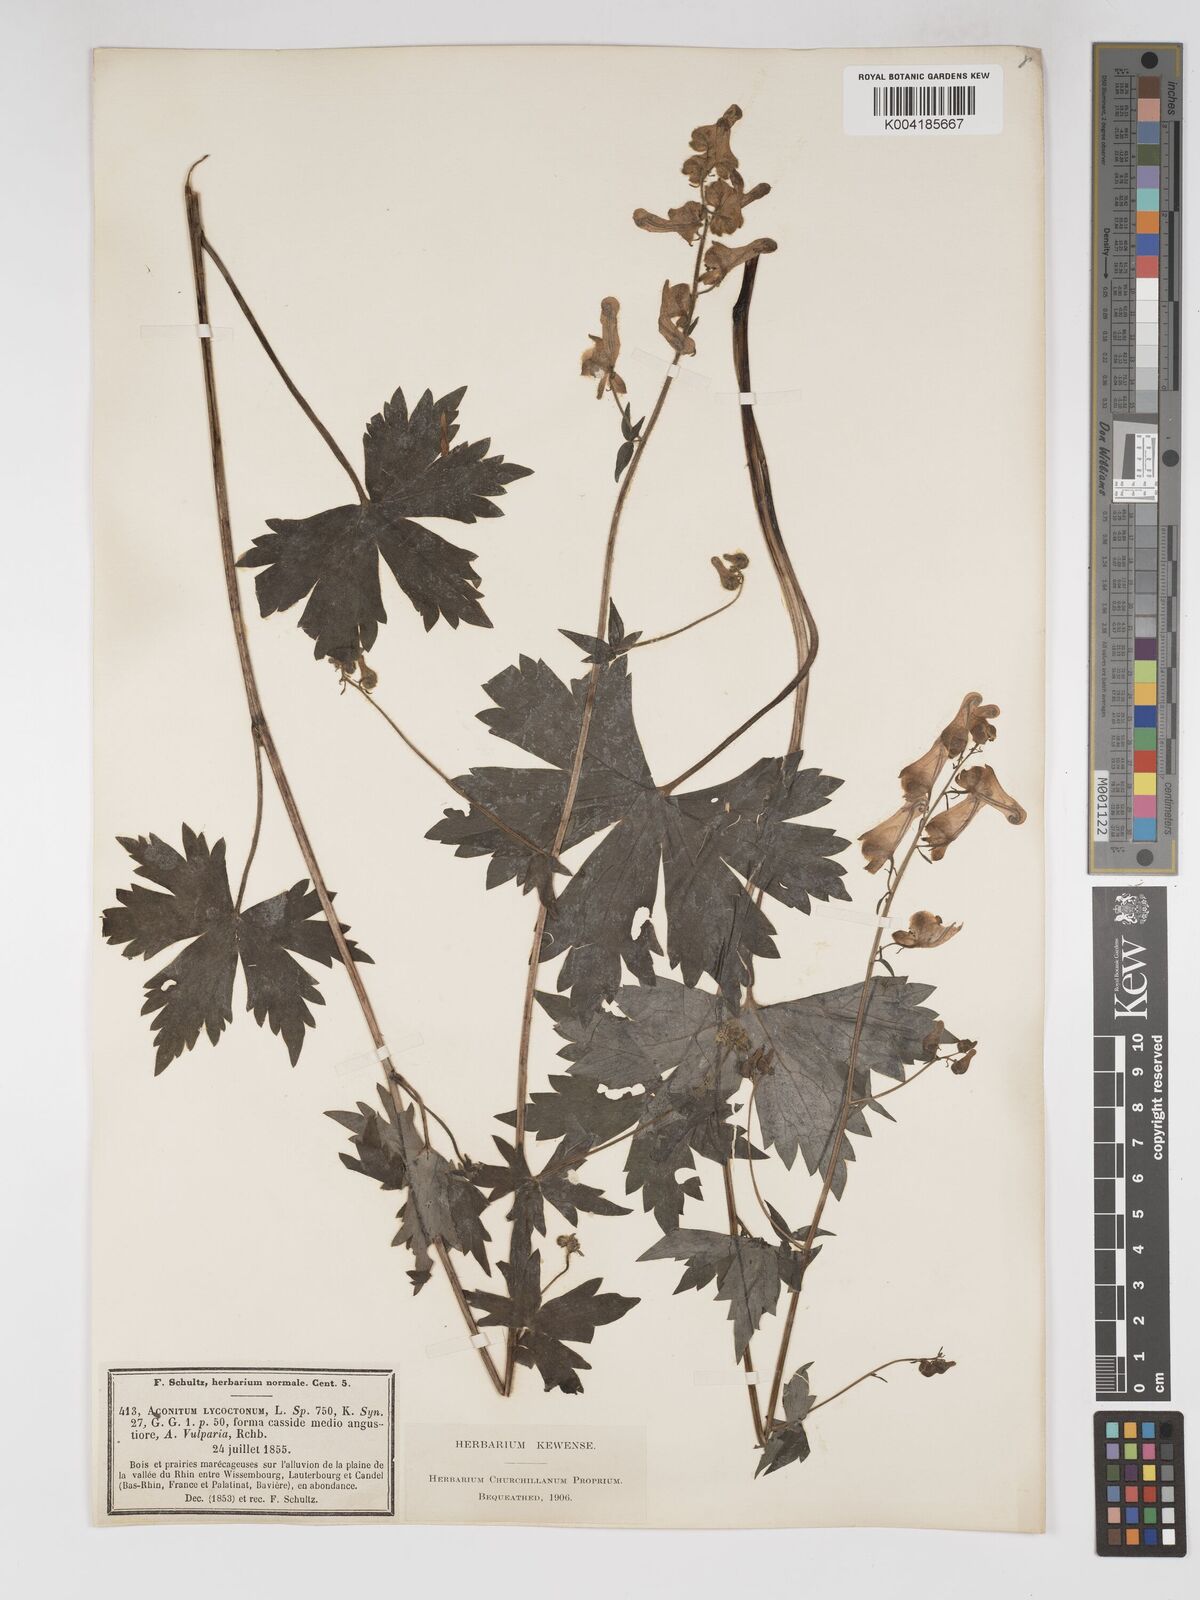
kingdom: Plantae
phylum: Tracheophyta
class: Magnoliopsida
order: Ranunculales
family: Ranunculaceae
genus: Aconitum
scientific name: Aconitum lycoctonum
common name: Wolf's-bane
